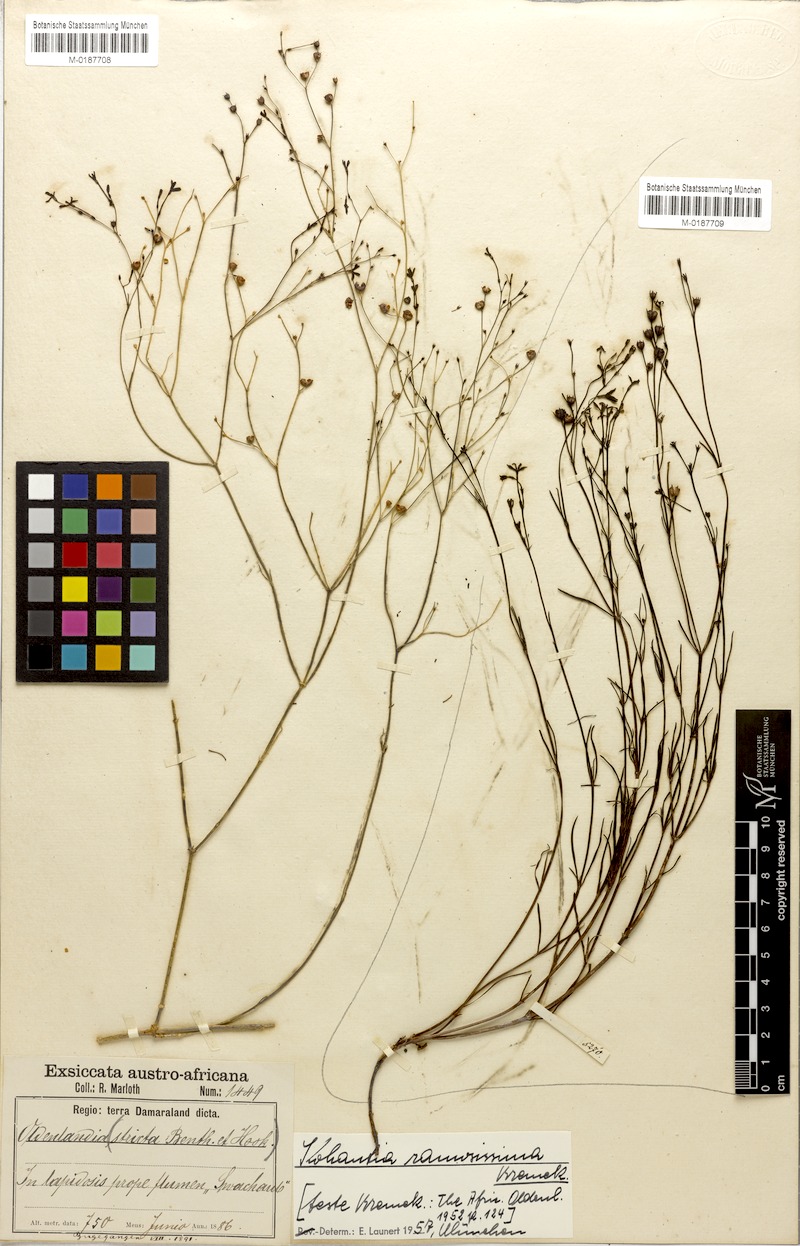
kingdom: Plantae
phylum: Tracheophyta
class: Magnoliopsida
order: Gentianales
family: Rubiaceae
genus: Kohautia
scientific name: Kohautia ramosissima
